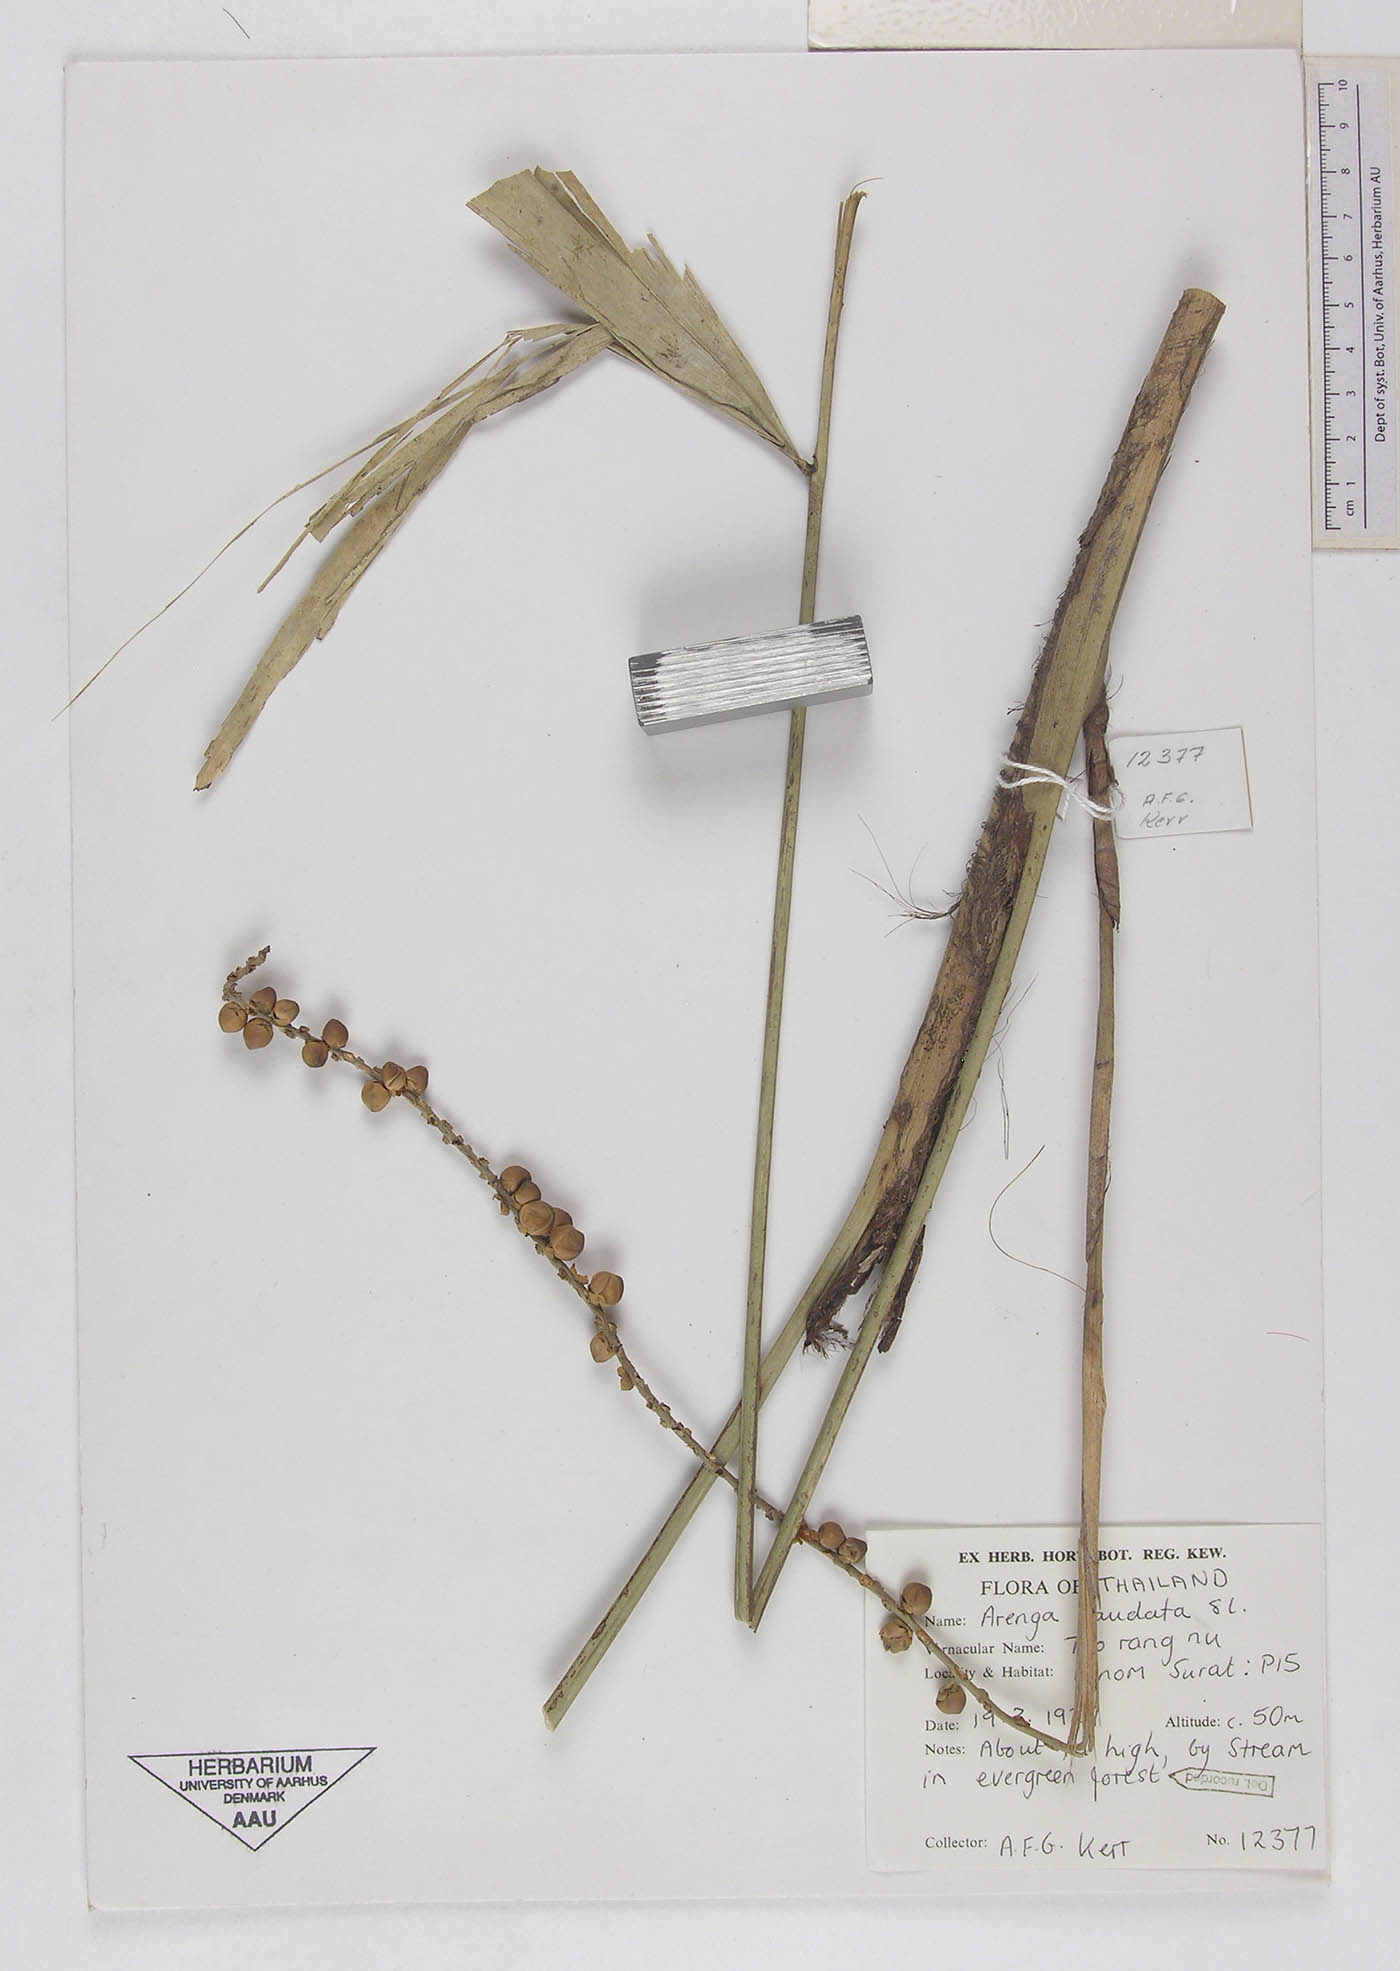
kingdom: Plantae
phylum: Tracheophyta
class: Liliopsida
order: Arecales
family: Arecaceae
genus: Arenga
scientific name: Arenga caudata
